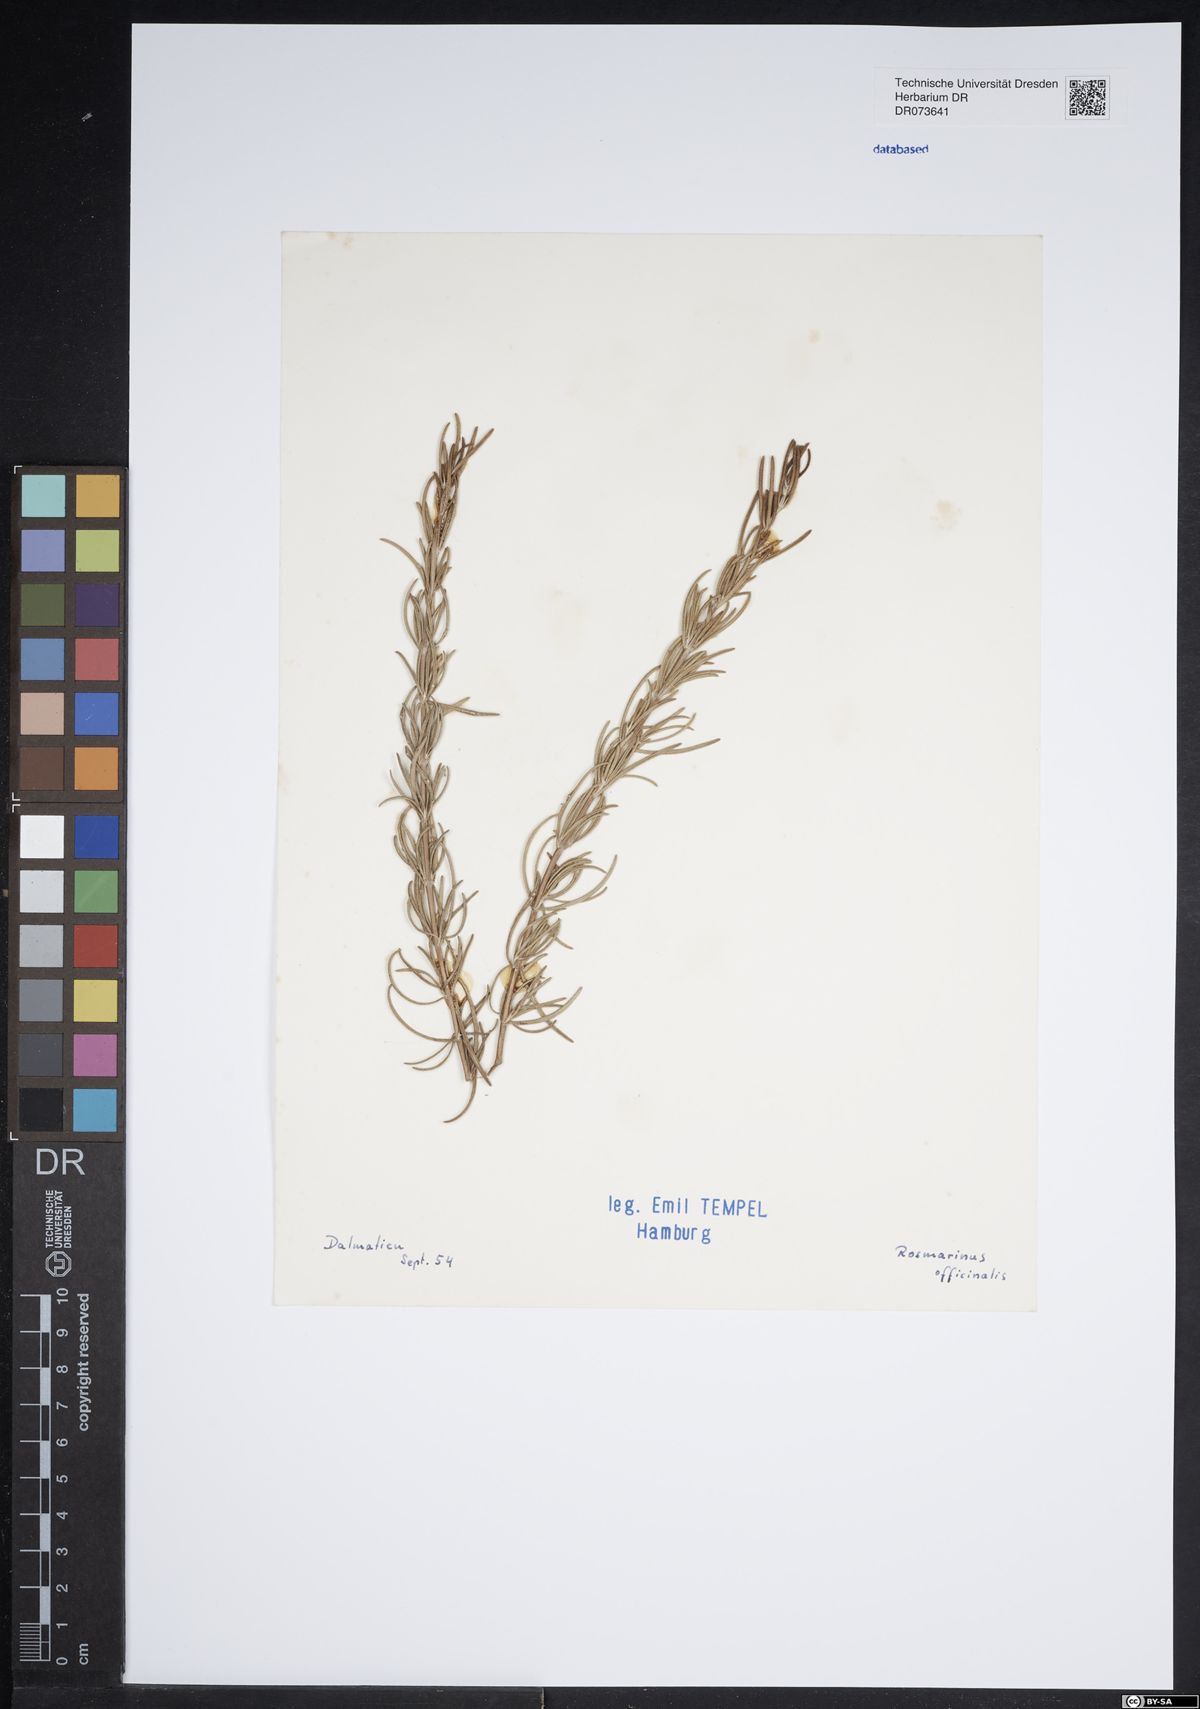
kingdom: Plantae
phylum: Tracheophyta
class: Magnoliopsida
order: Lamiales
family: Lamiaceae
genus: Salvia
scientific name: Salvia rosmarinus
